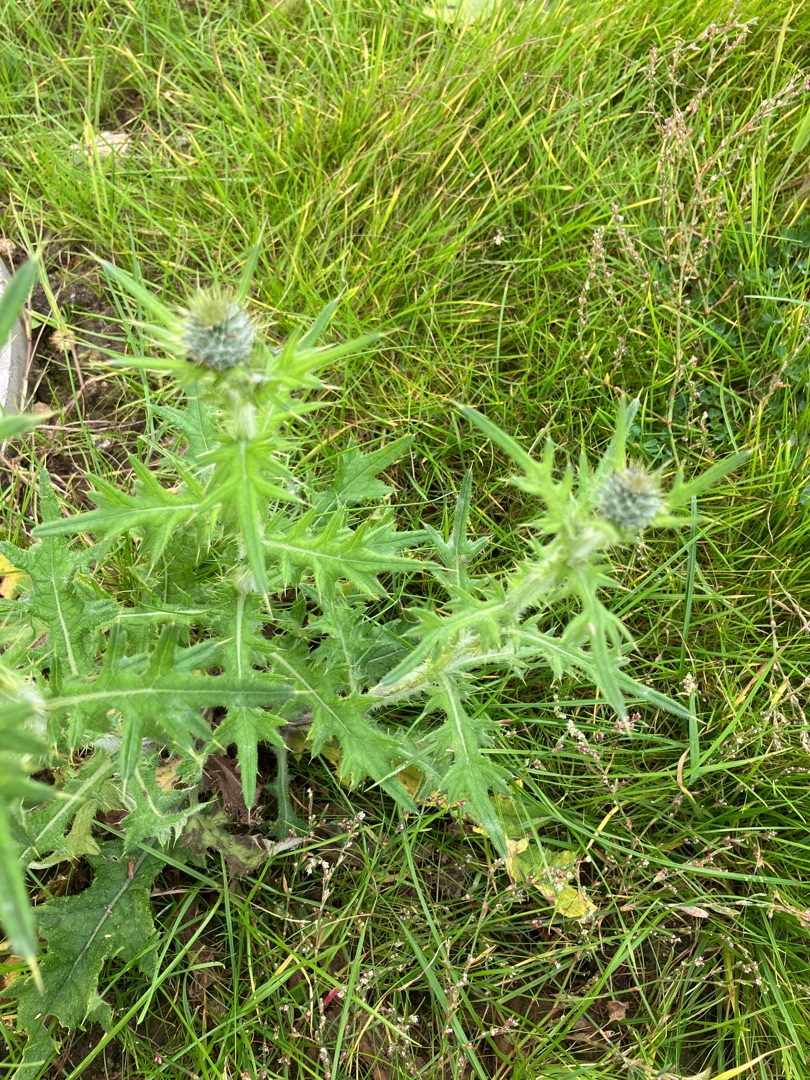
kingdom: Plantae
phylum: Tracheophyta
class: Magnoliopsida
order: Asterales
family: Asteraceae
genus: Cirsium
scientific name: Cirsium vulgare
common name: Horse-tidsel
